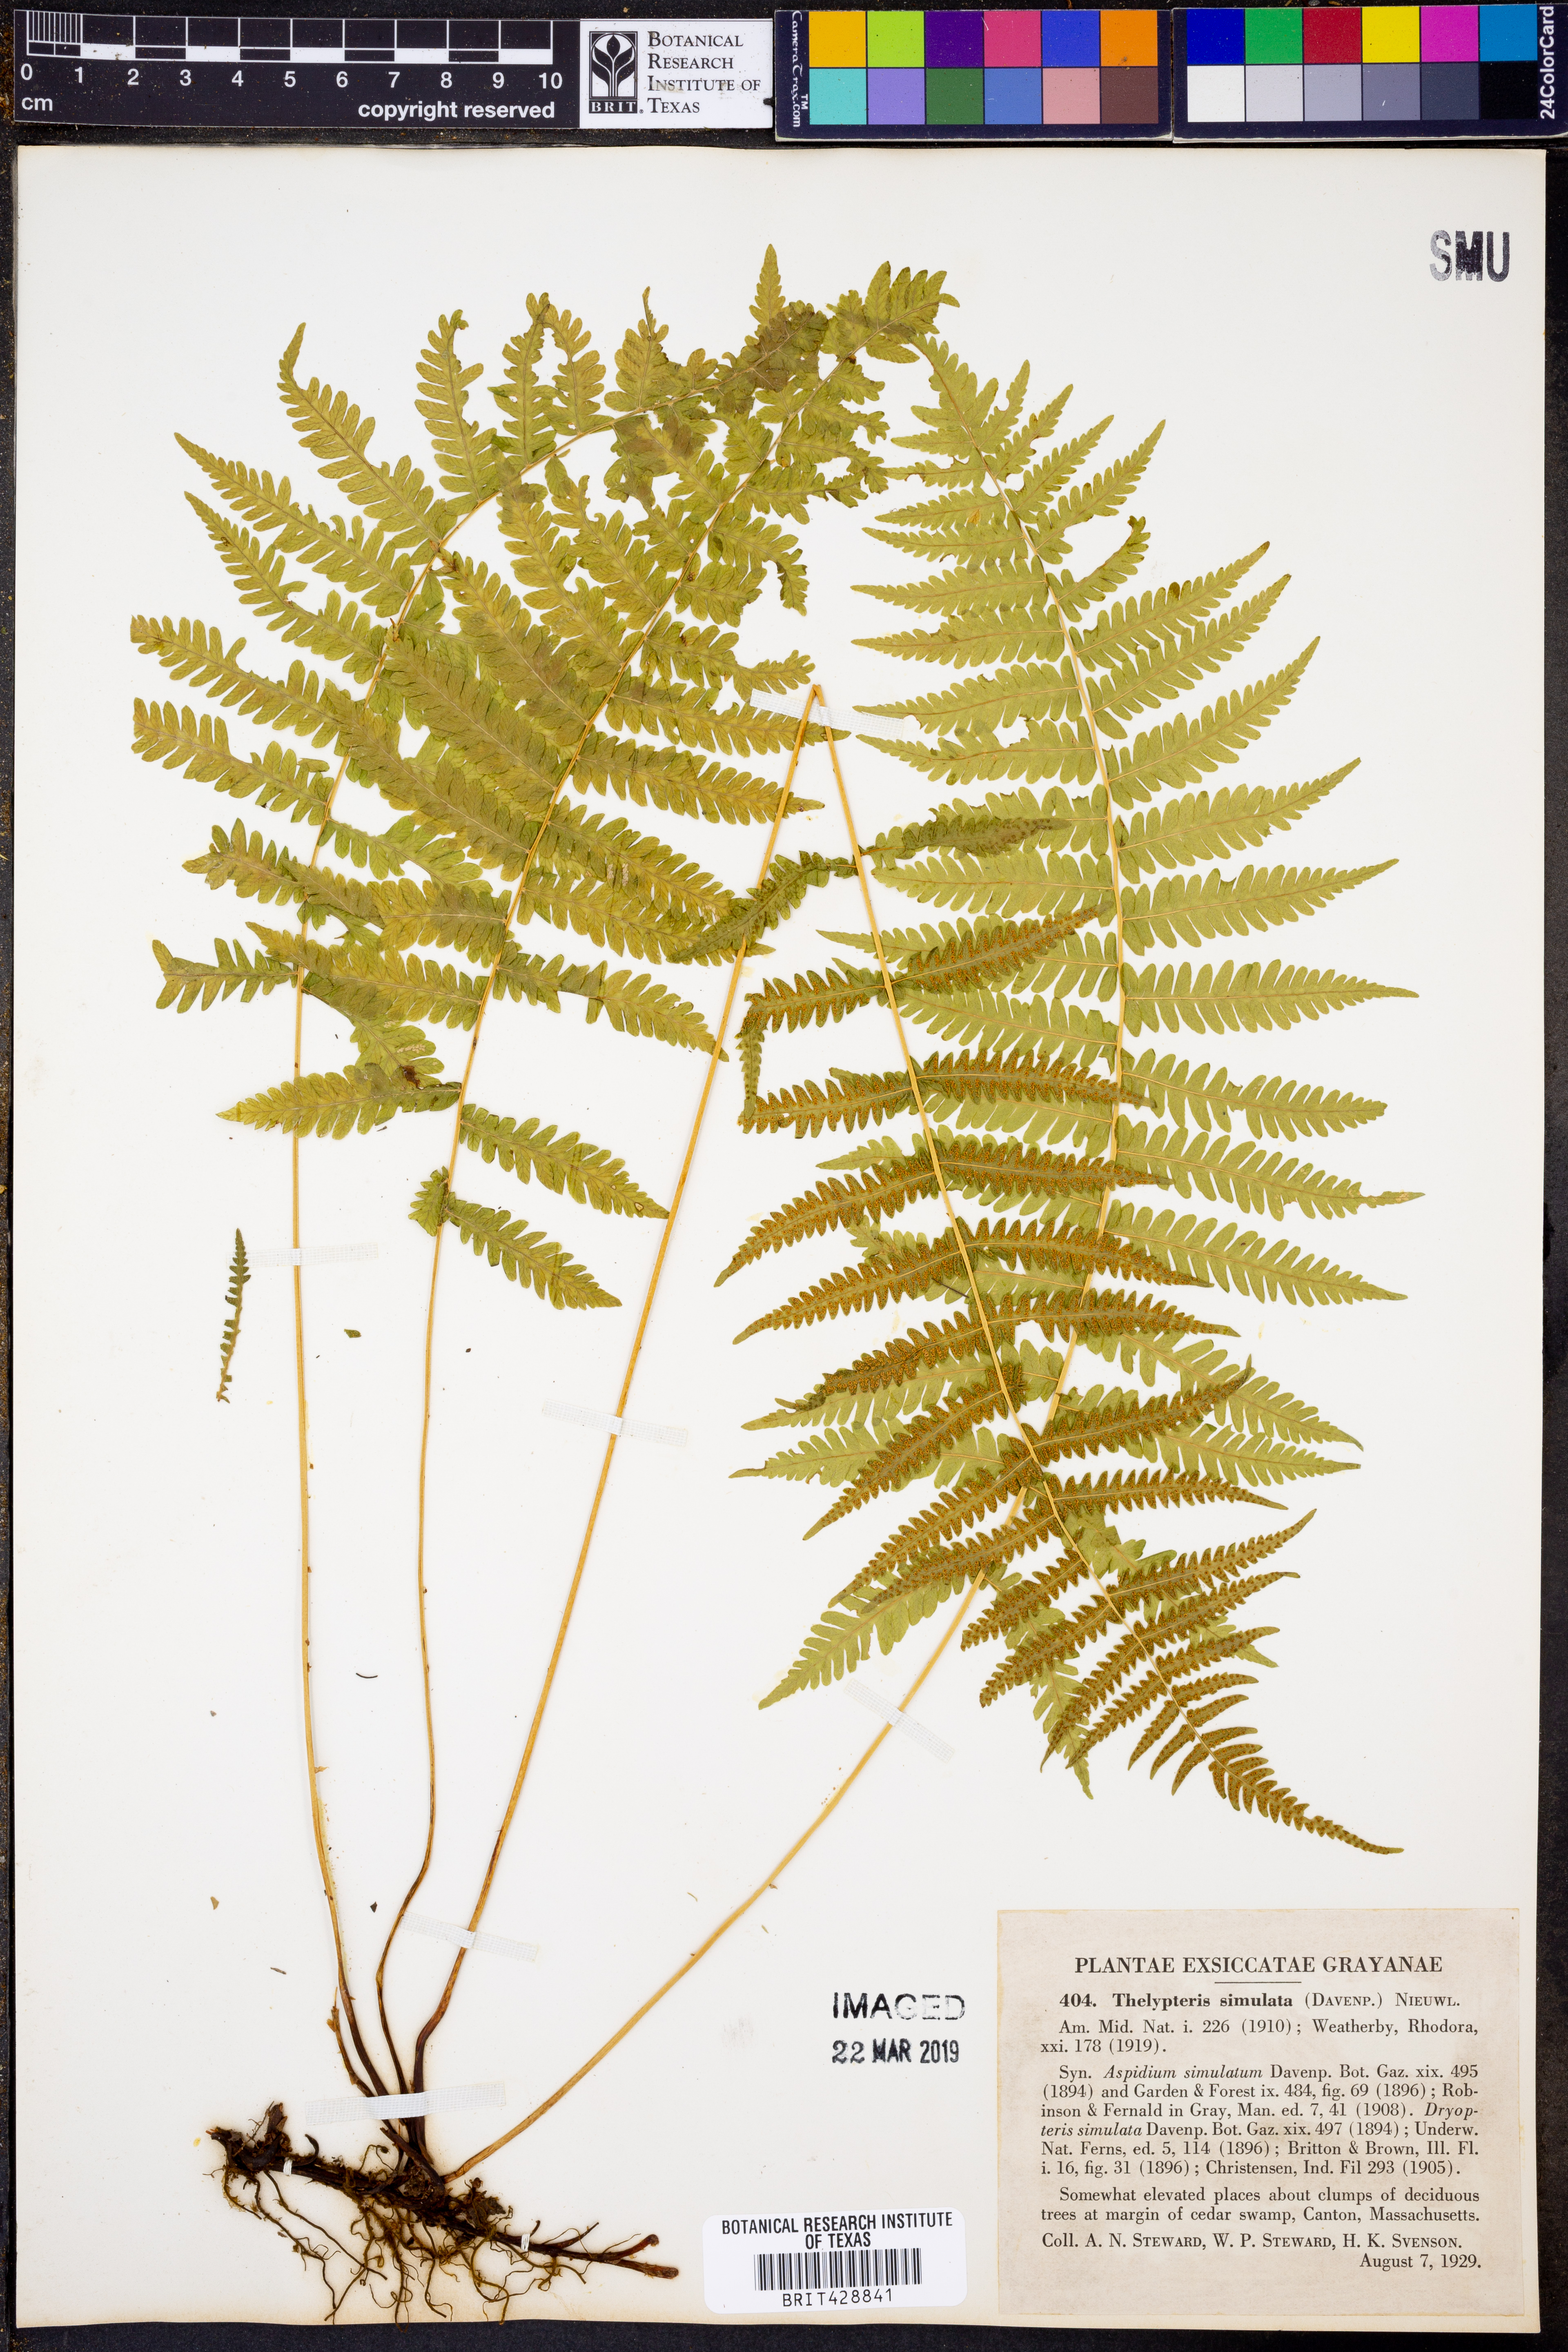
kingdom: Plantae
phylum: Tracheophyta
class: Polypodiopsida
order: Polypodiales
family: Thelypteridaceae
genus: Coryphopteris
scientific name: Coryphopteris simulata
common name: Bog fern
